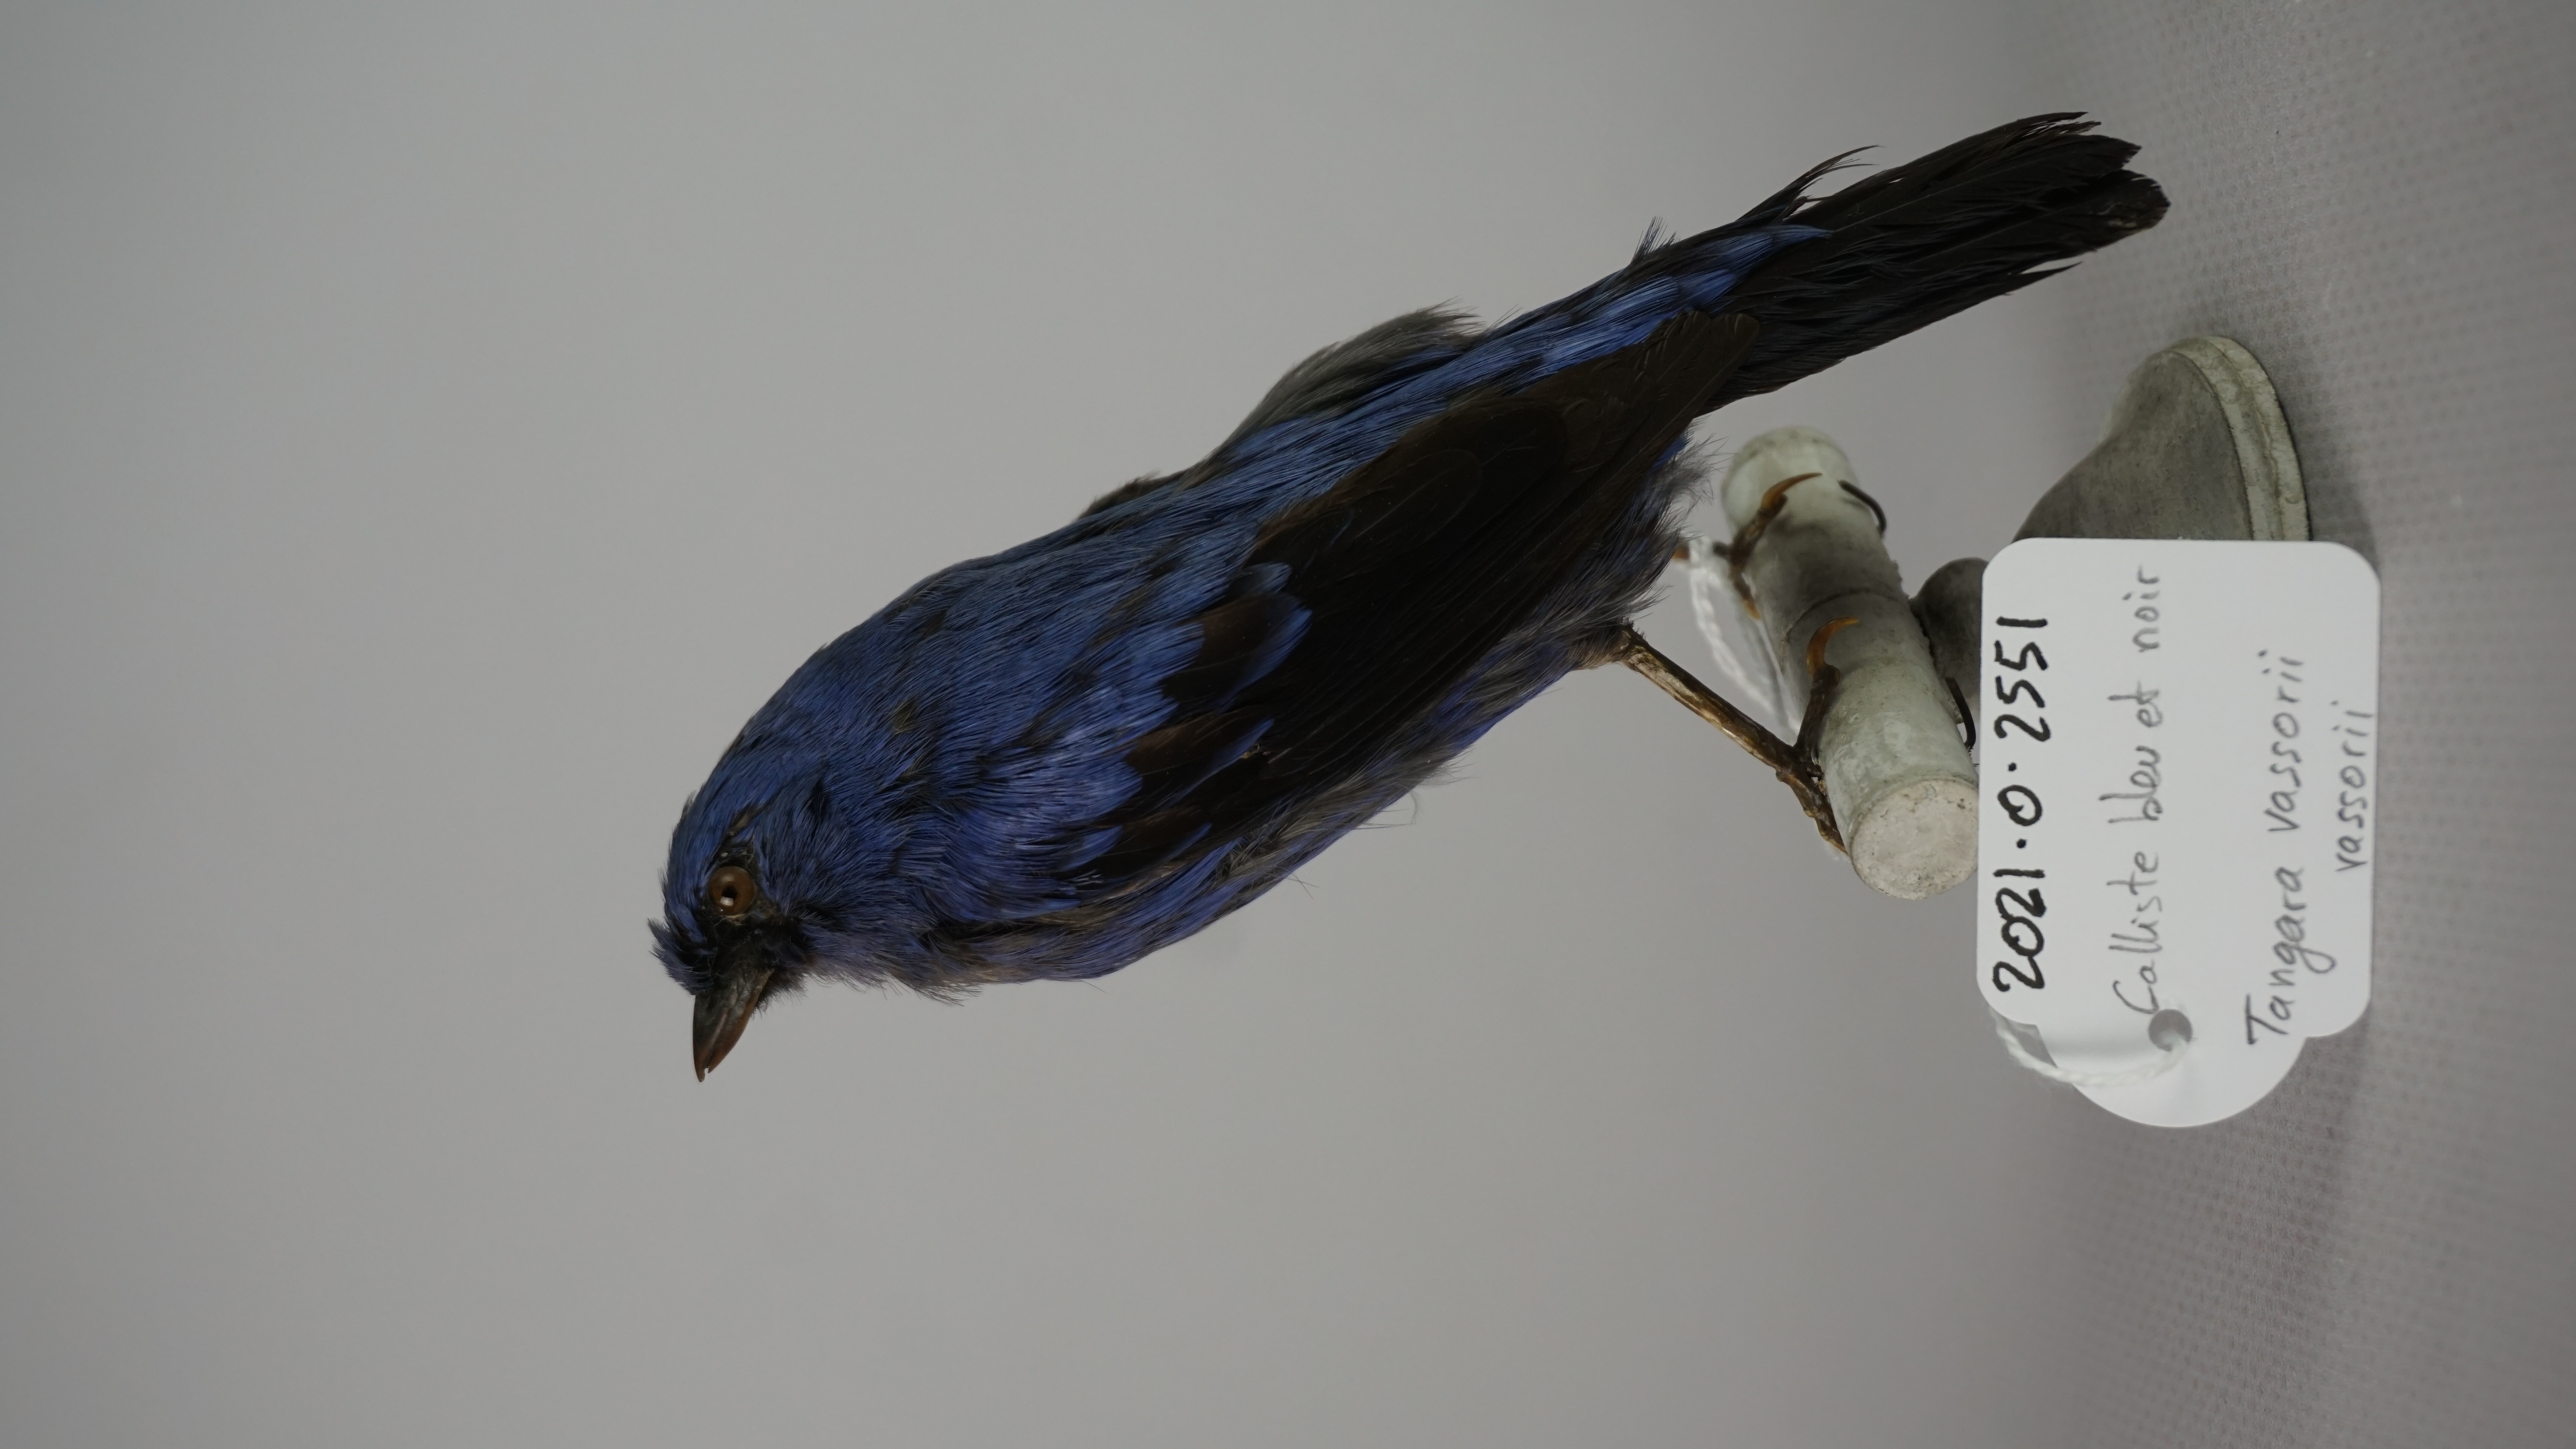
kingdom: Animalia
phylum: Chordata
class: Aves
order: Passeriformes
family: Thraupidae
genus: Tangara
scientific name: Tangara vassorii
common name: Blue-and-black tanager
